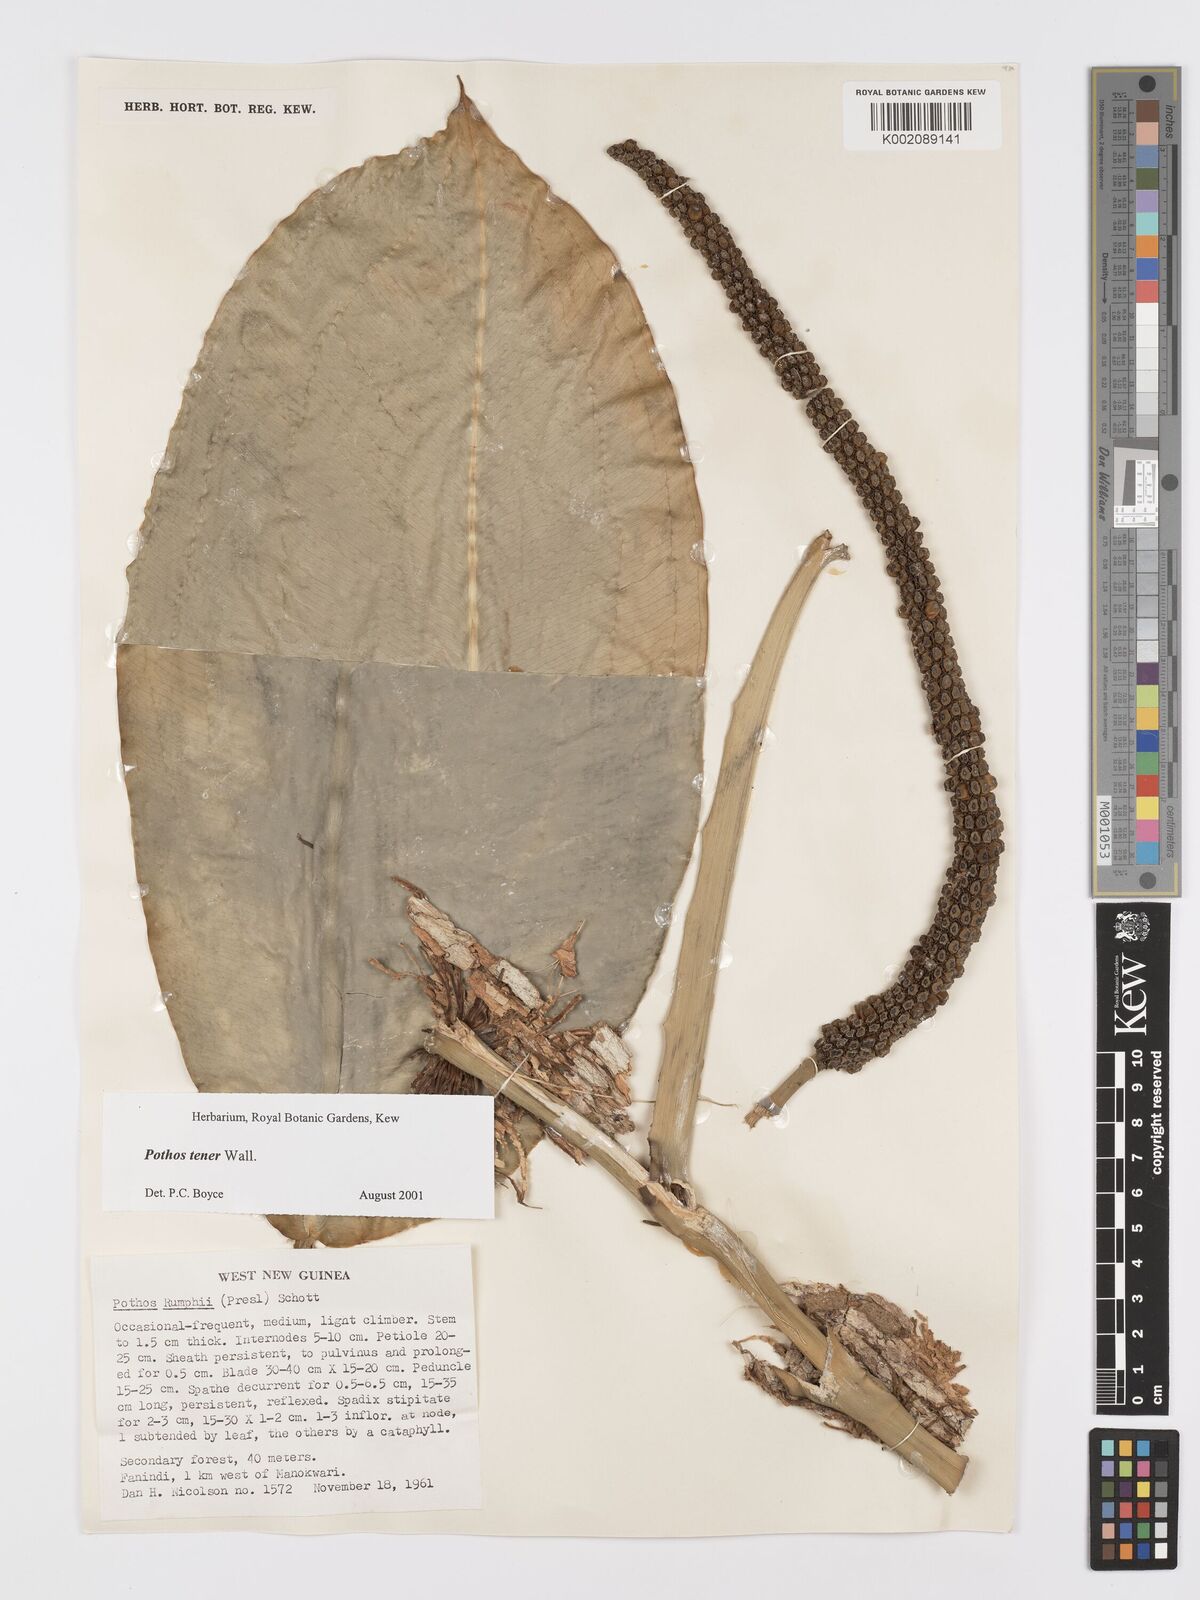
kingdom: Plantae
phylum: Tracheophyta
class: Liliopsida
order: Alismatales
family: Araceae
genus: Pothos
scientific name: Pothos tener
